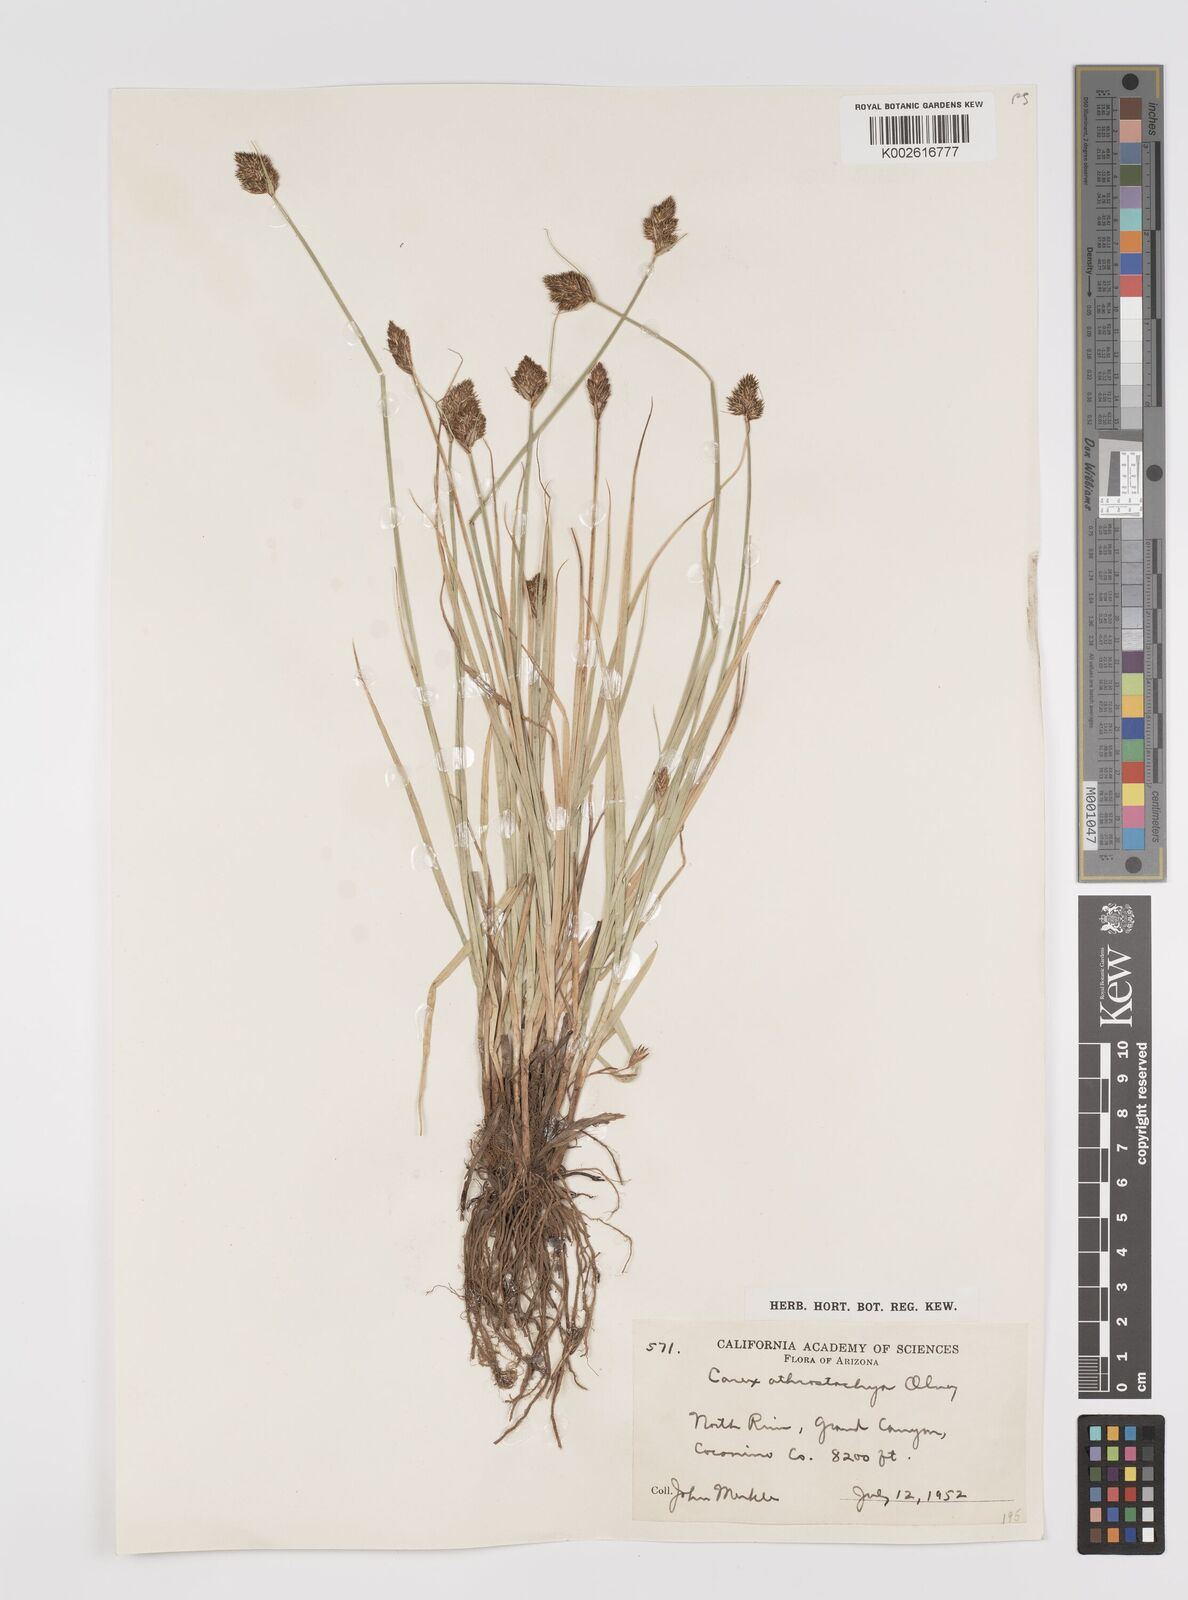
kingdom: Plantae
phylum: Tracheophyta
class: Liliopsida
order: Poales
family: Cyperaceae
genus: Carex
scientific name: Carex athrostachya
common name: Slenderbeak sedge
